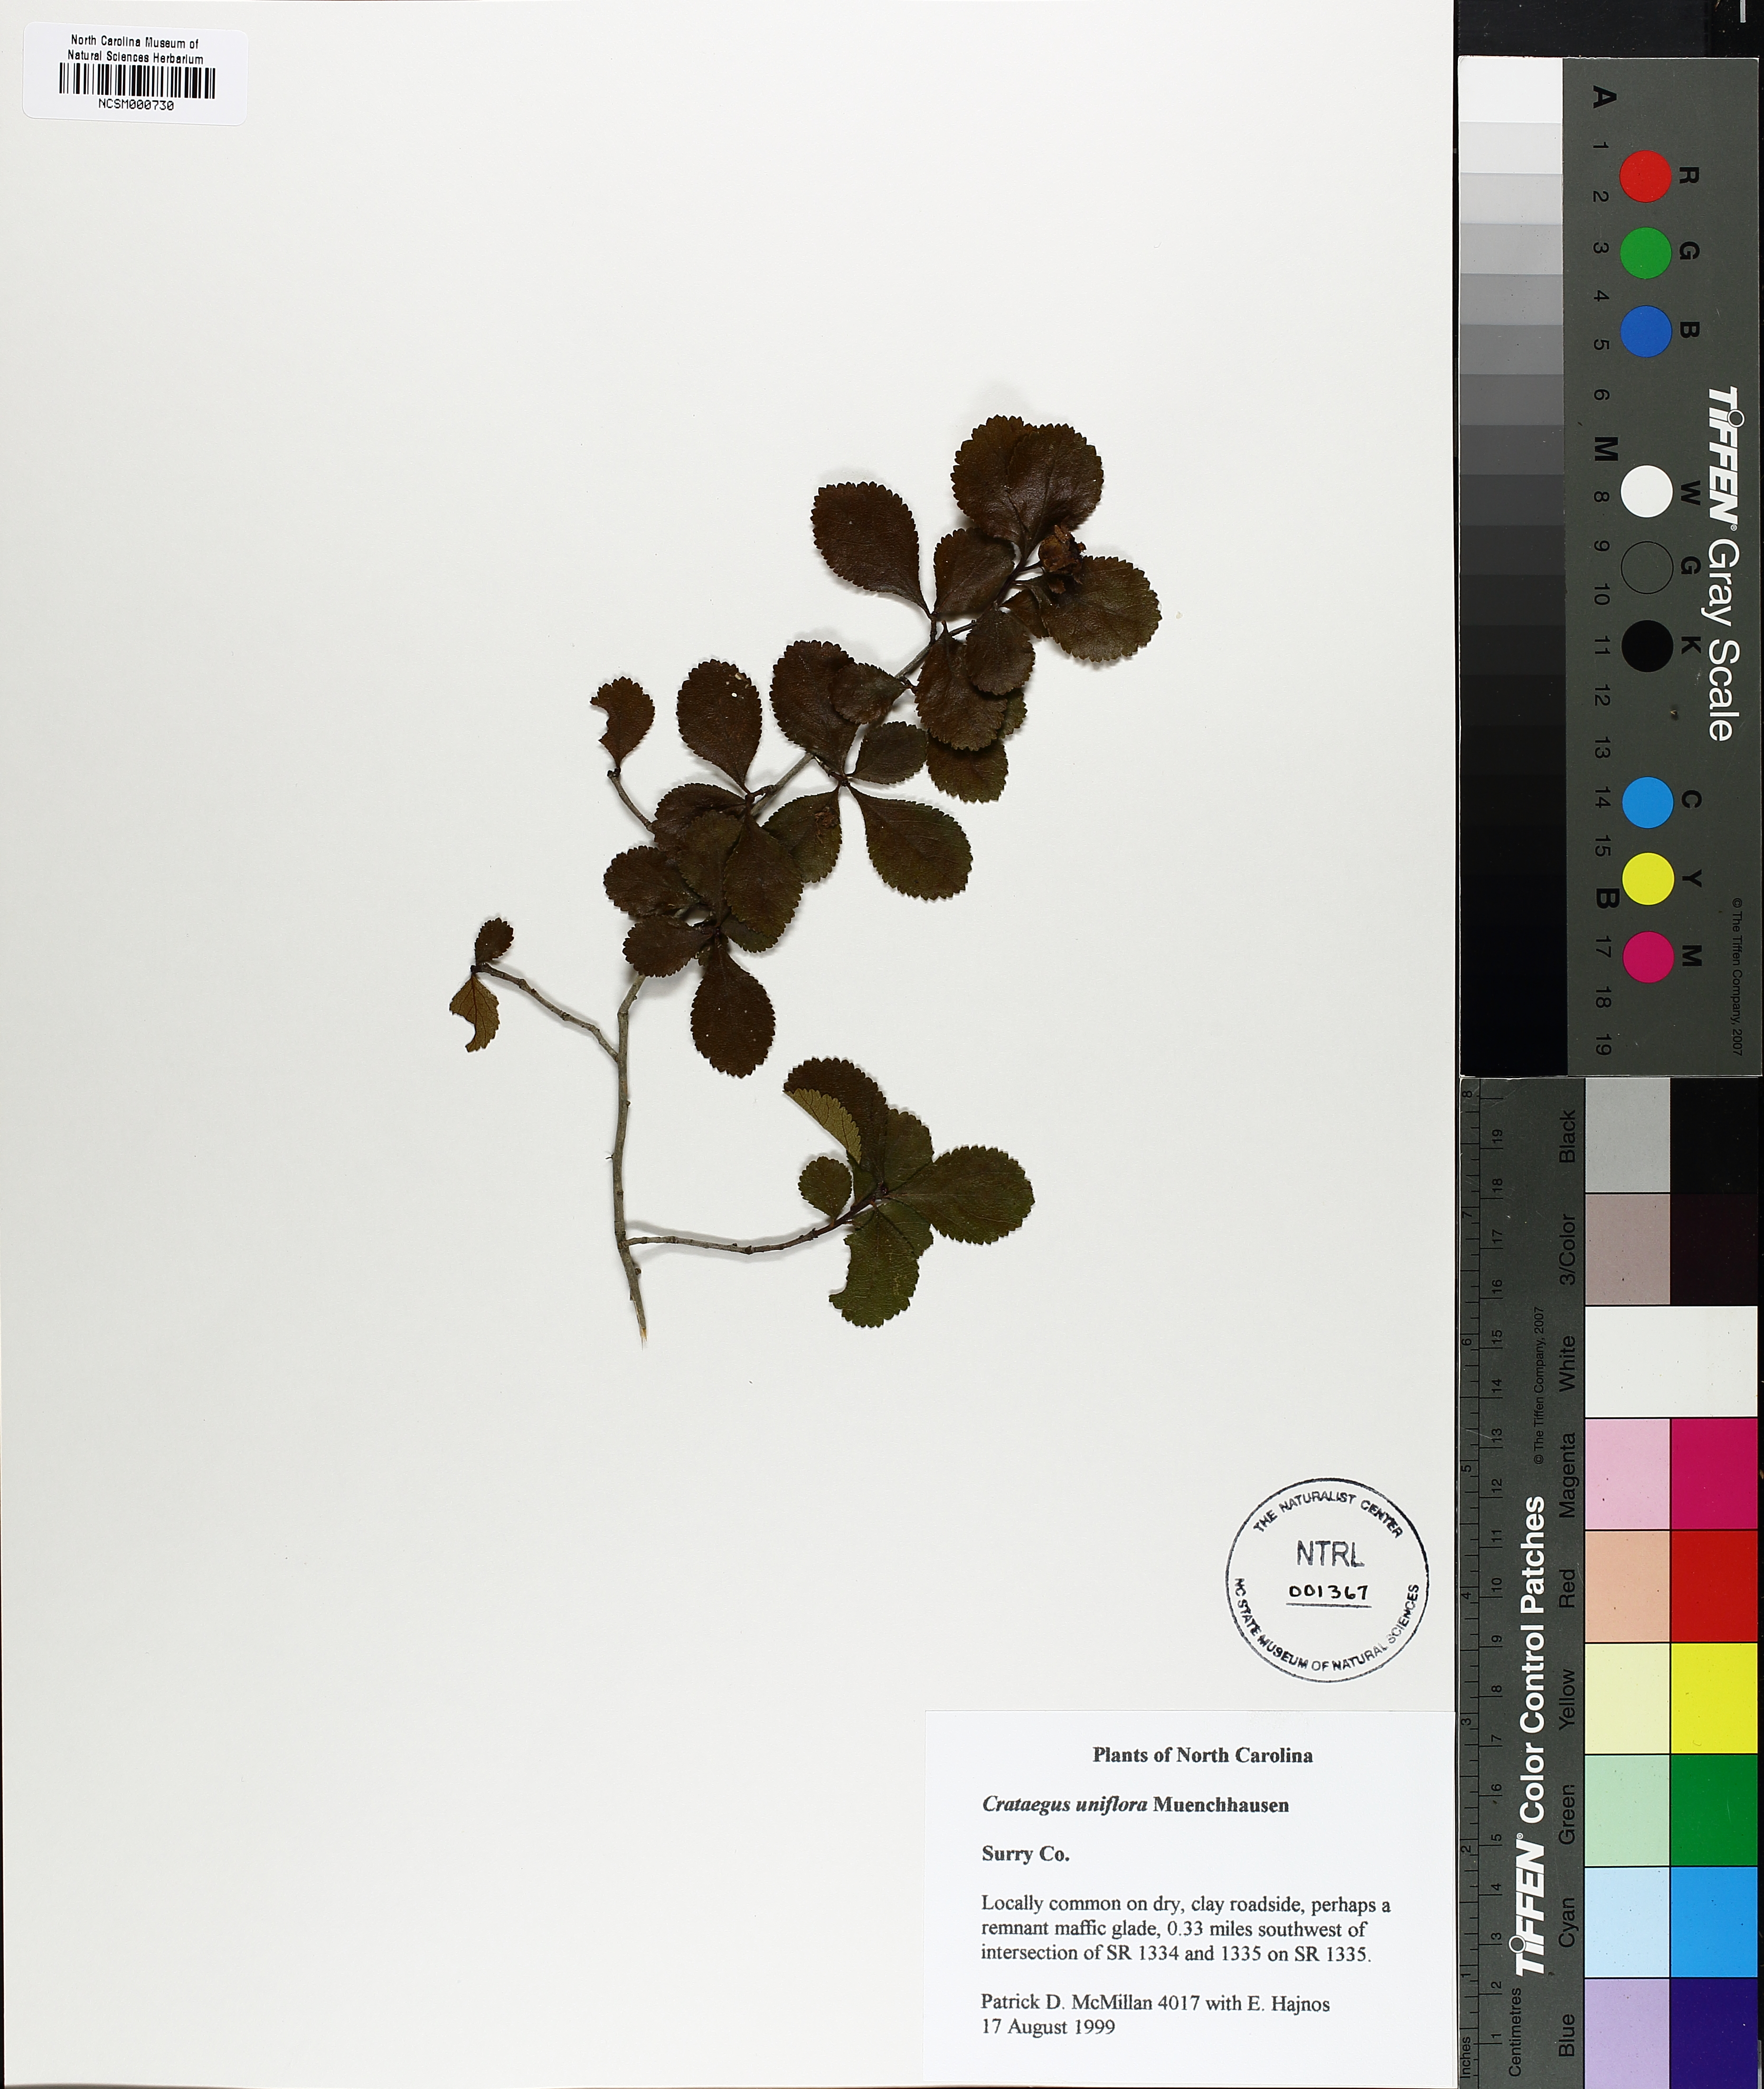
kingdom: Plantae
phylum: Tracheophyta
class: Magnoliopsida
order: Rosales
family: Rosaceae
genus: Crataegus
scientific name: Crataegus uniflora
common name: One-flower hawthorn
